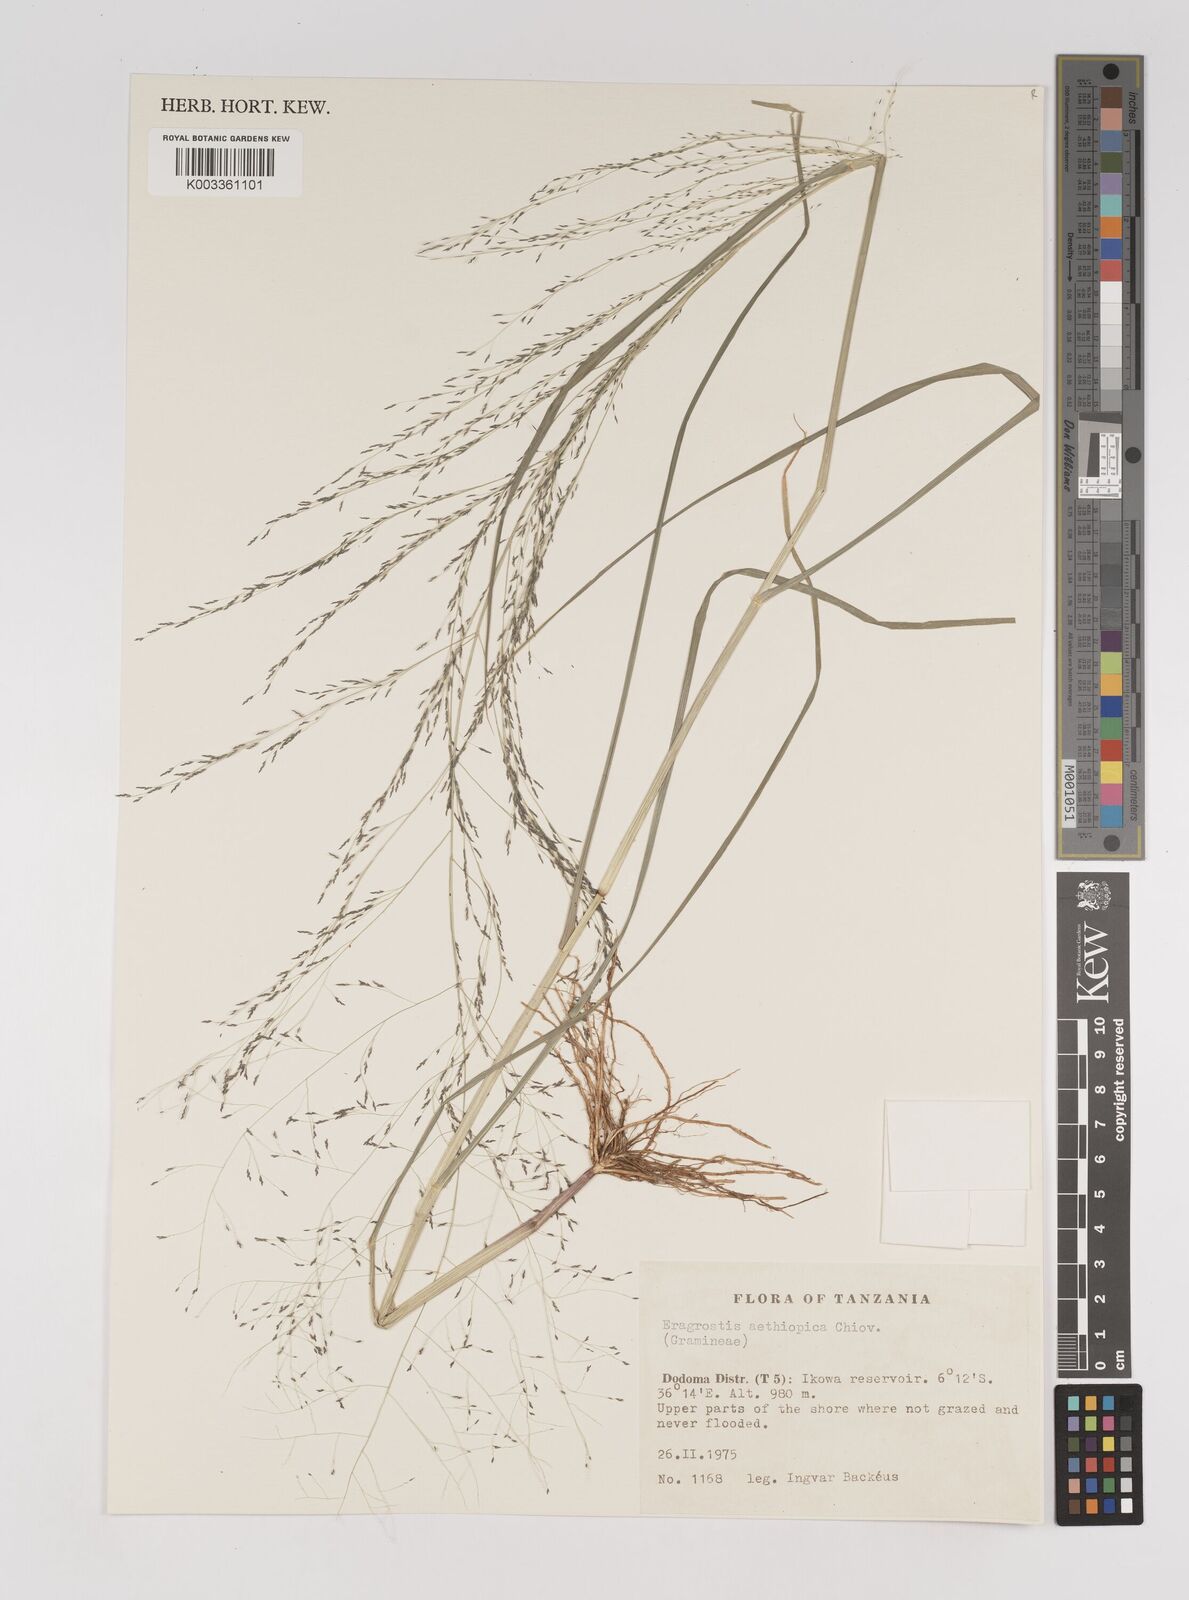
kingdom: Plantae
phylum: Tracheophyta
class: Liliopsida
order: Poales
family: Poaceae
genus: Eragrostis
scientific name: Eragrostis aethiopica
